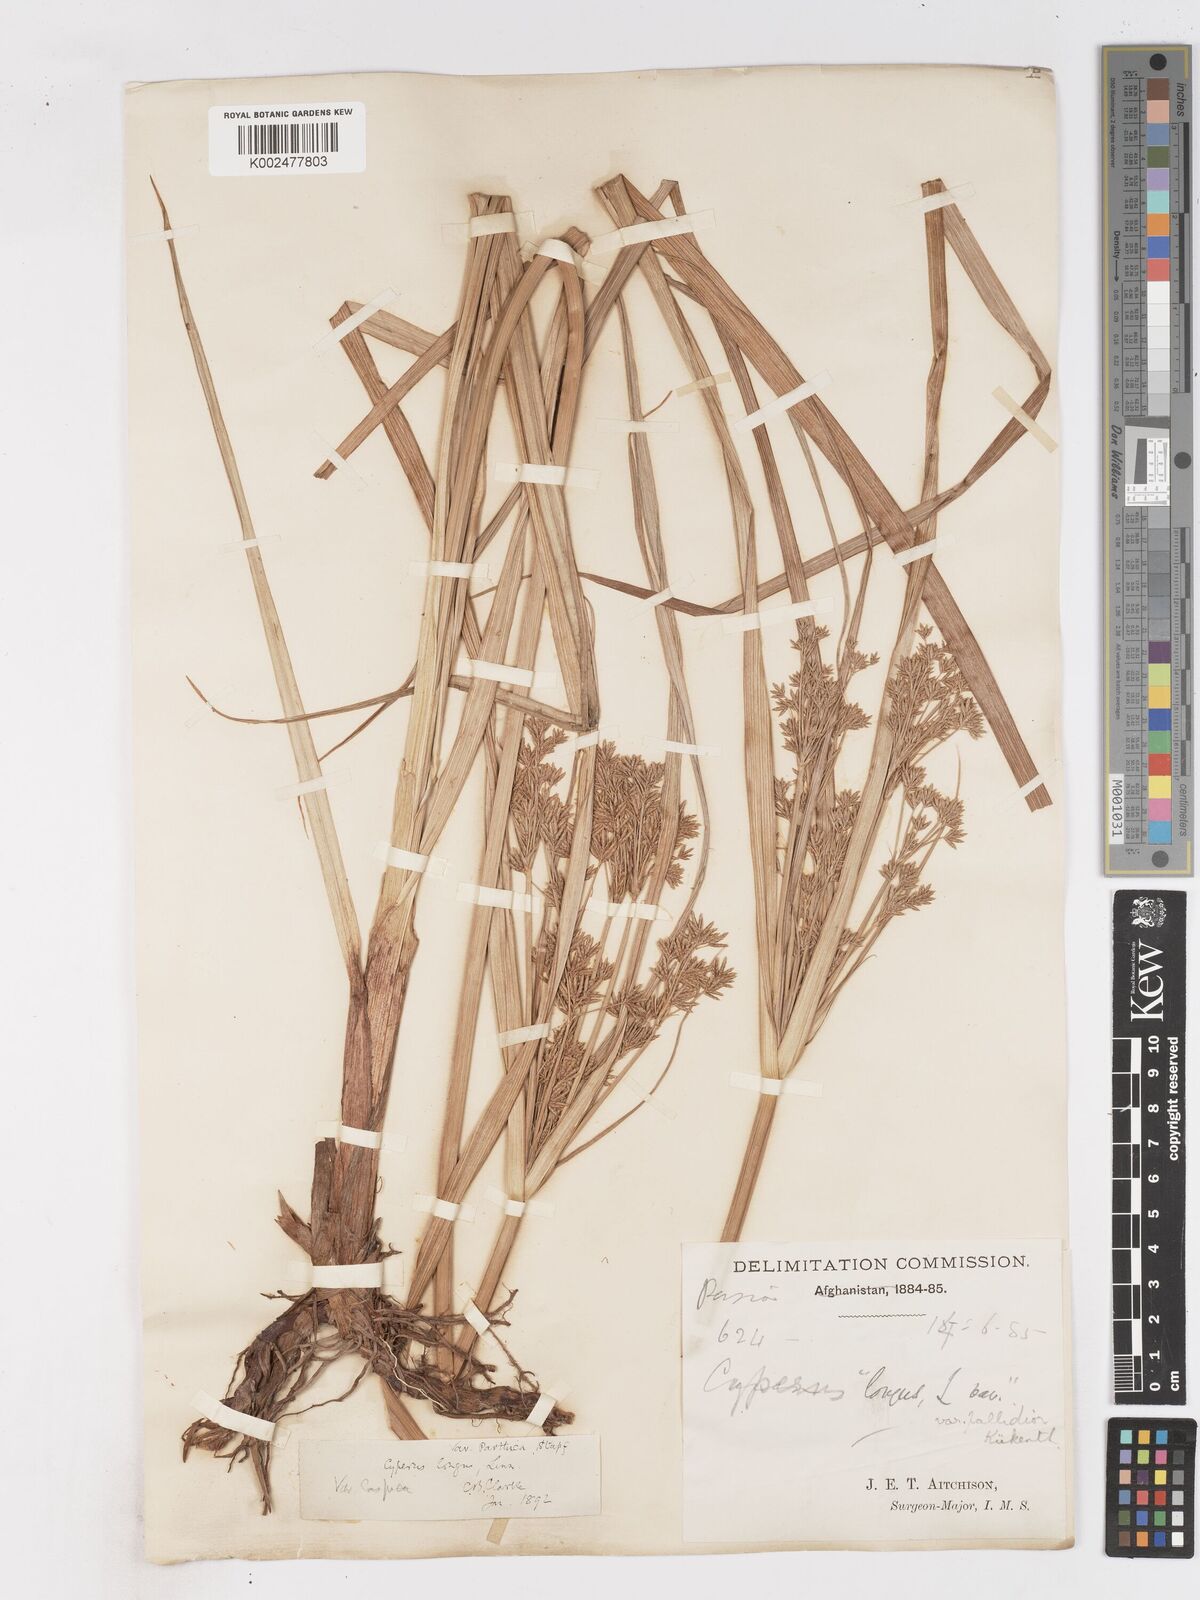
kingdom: Plantae
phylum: Tracheophyta
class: Liliopsida
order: Poales
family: Cyperaceae
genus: Cyperus
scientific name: Cyperus longus
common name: Galingale
